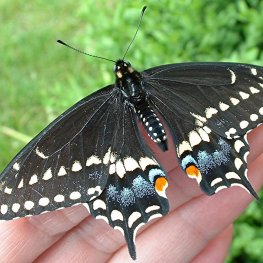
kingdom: Animalia
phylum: Arthropoda
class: Insecta
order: Lepidoptera
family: Papilionidae
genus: Papilio
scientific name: Papilio polyxenes
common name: Black Swallowtail
